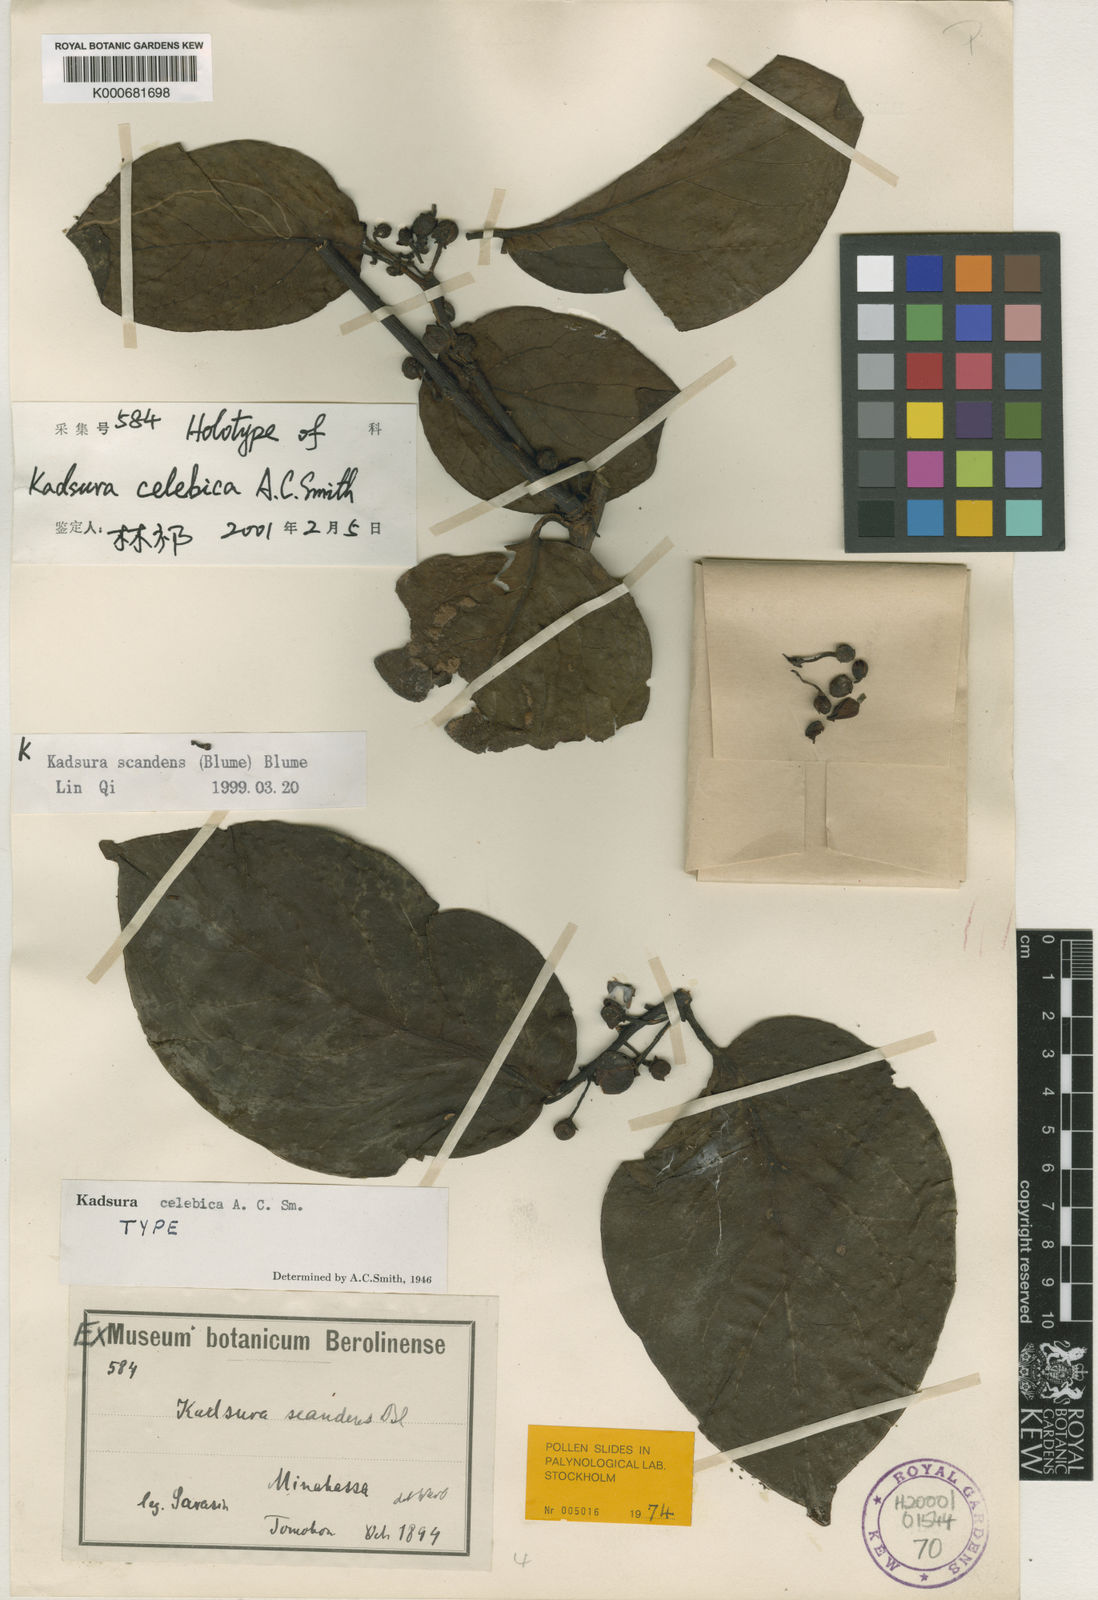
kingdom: Plantae
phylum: Tracheophyta
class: Magnoliopsida
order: Austrobaileyales
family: Schisandraceae
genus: Kadsura
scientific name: Kadsura celebica
